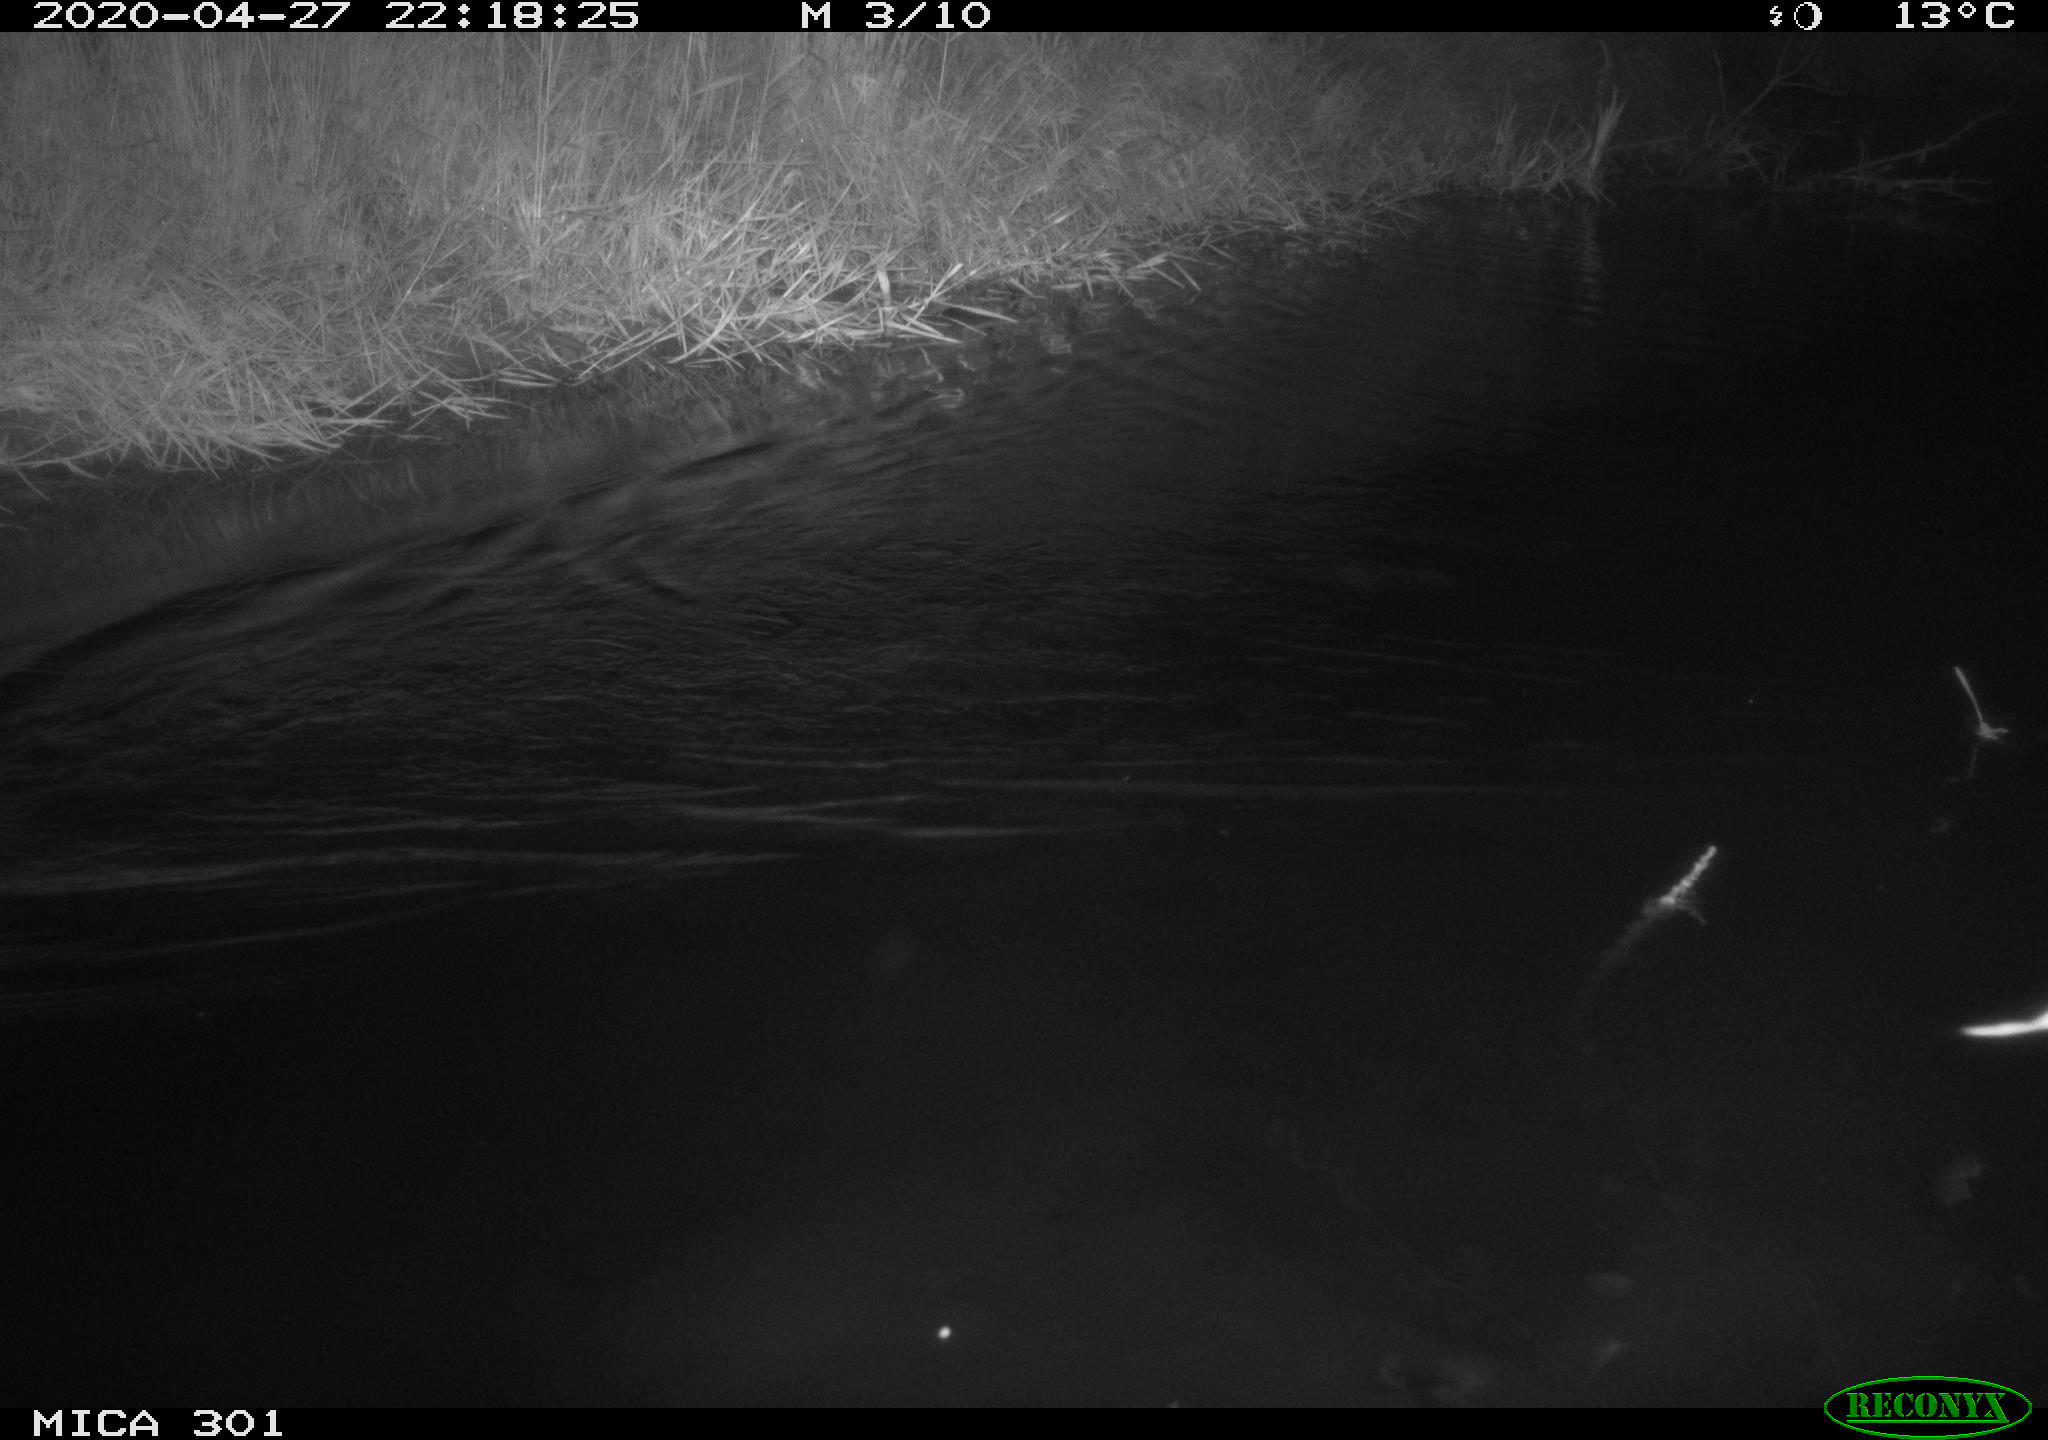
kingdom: Animalia
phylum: Chordata
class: Mammalia
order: Rodentia
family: Castoridae
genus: Castor
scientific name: Castor fiber
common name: Eurasian beaver
